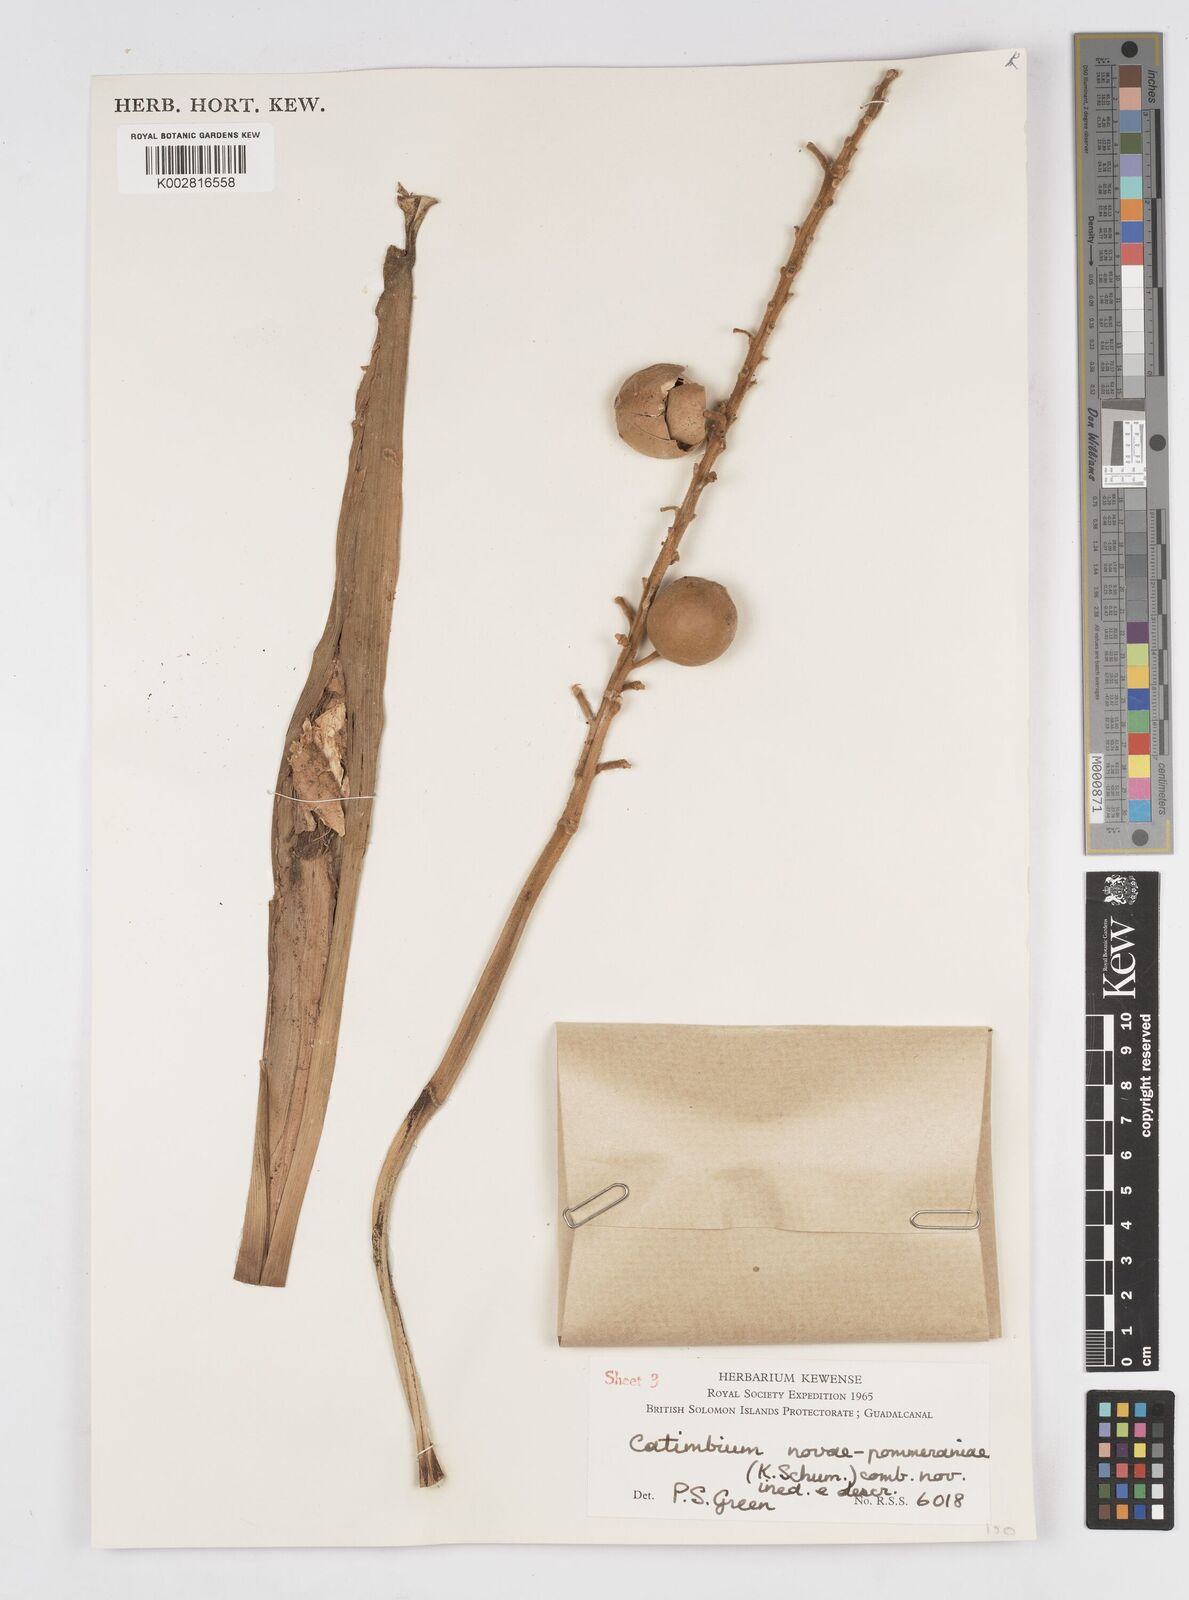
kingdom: Plantae
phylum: Tracheophyta
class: Liliopsida
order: Zingiberales
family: Zingiberaceae
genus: Alpinia
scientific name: Alpinia novae-pommeraniae
